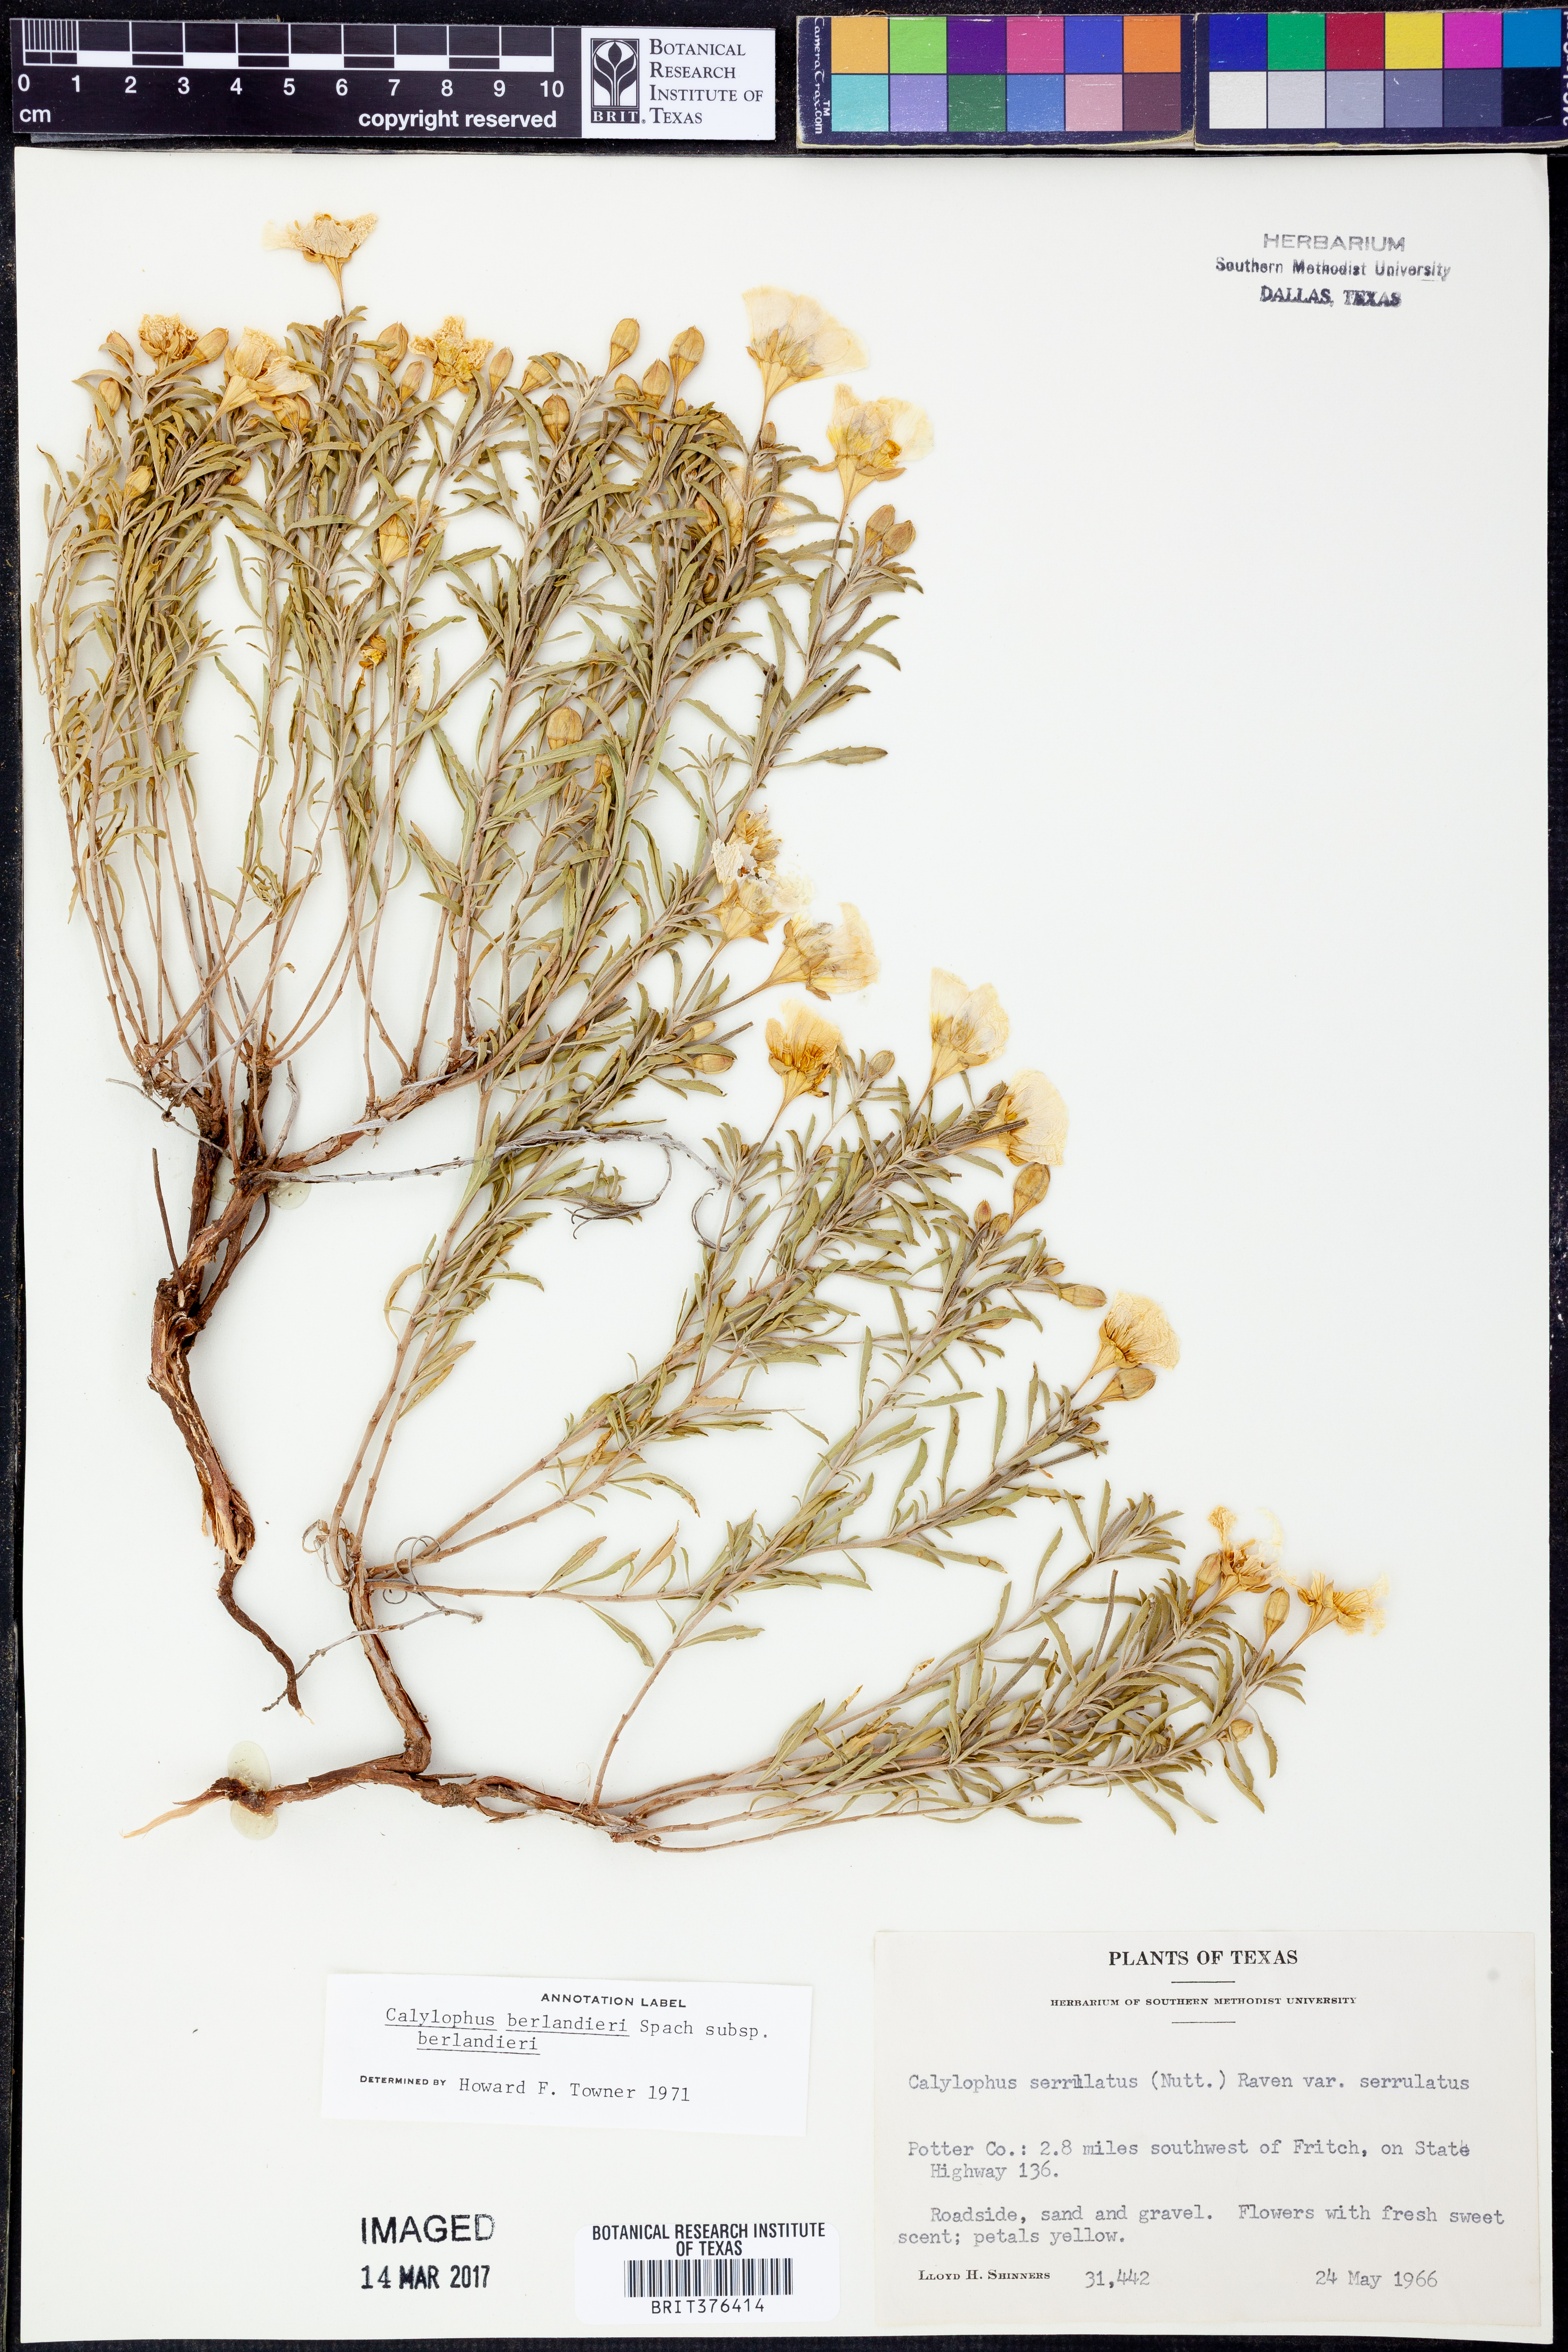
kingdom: Plantae
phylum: Tracheophyta
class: Magnoliopsida
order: Myrtales
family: Onagraceae
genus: Oenothera
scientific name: Oenothera capillifolia
